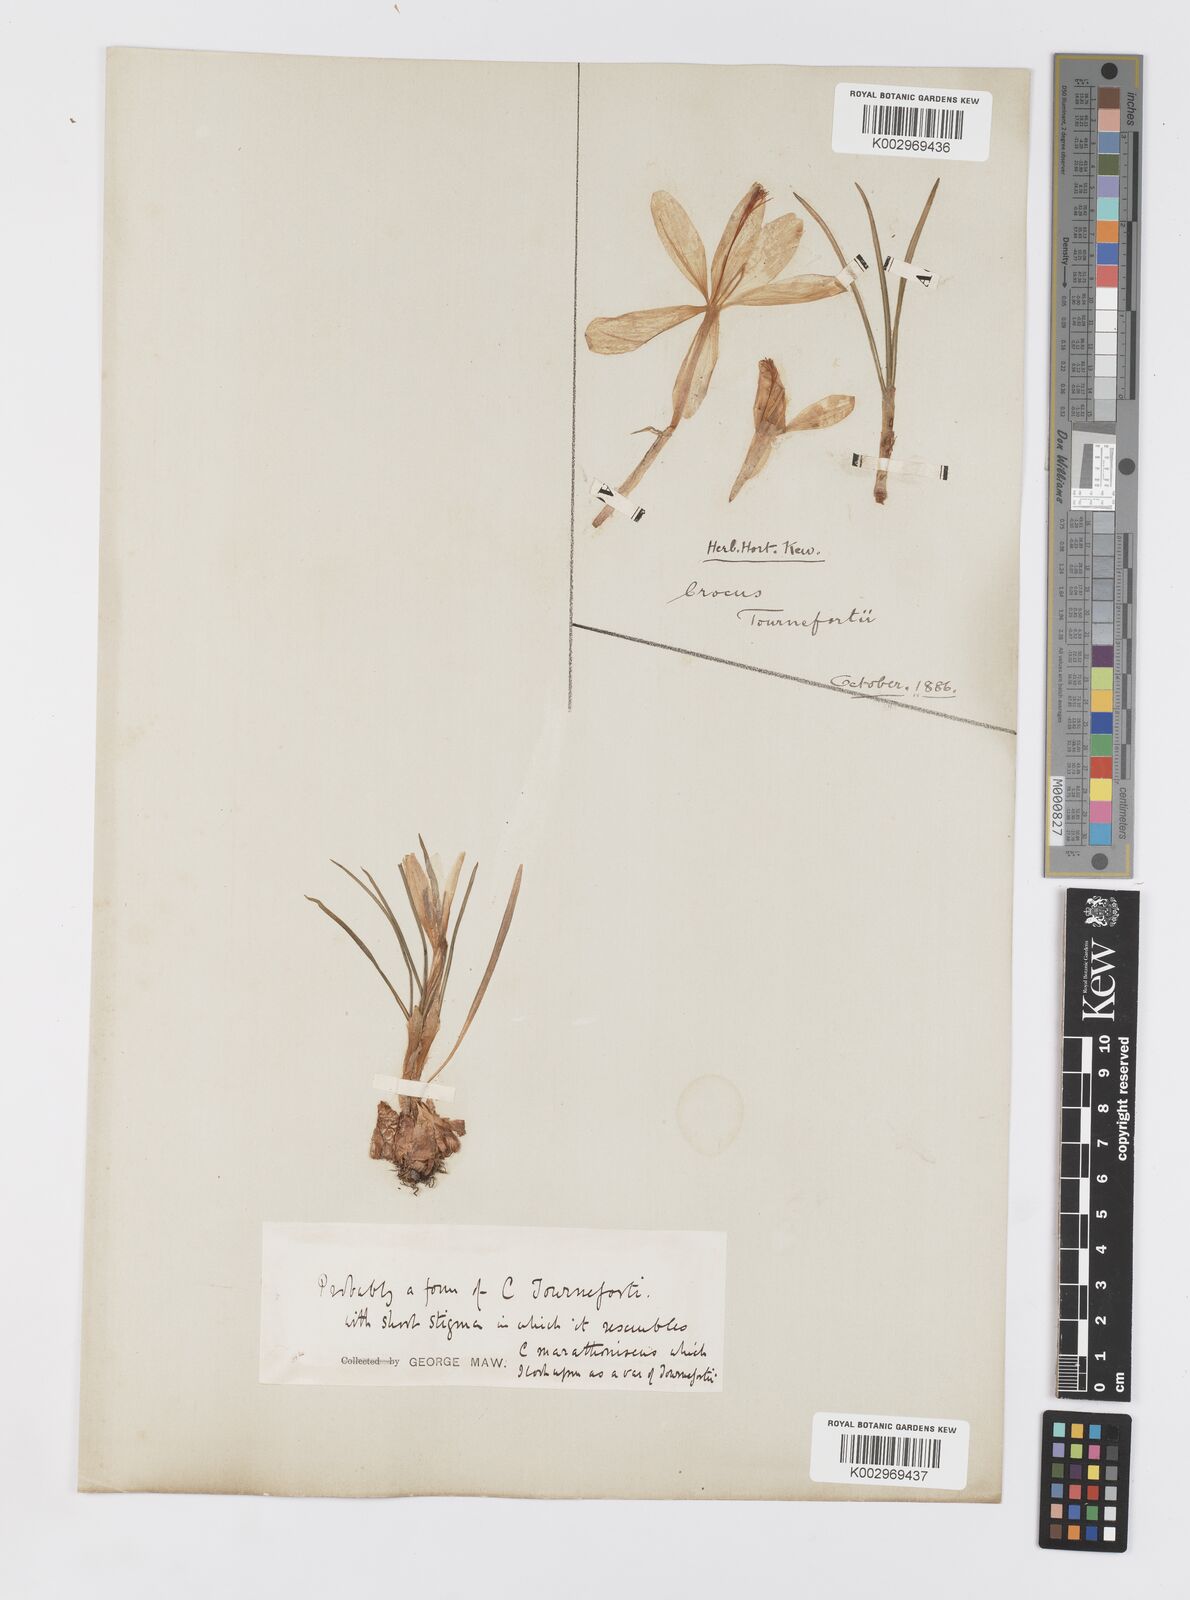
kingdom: Plantae
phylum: Tracheophyta
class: Liliopsida
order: Asparagales
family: Iridaceae
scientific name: Iridaceae
